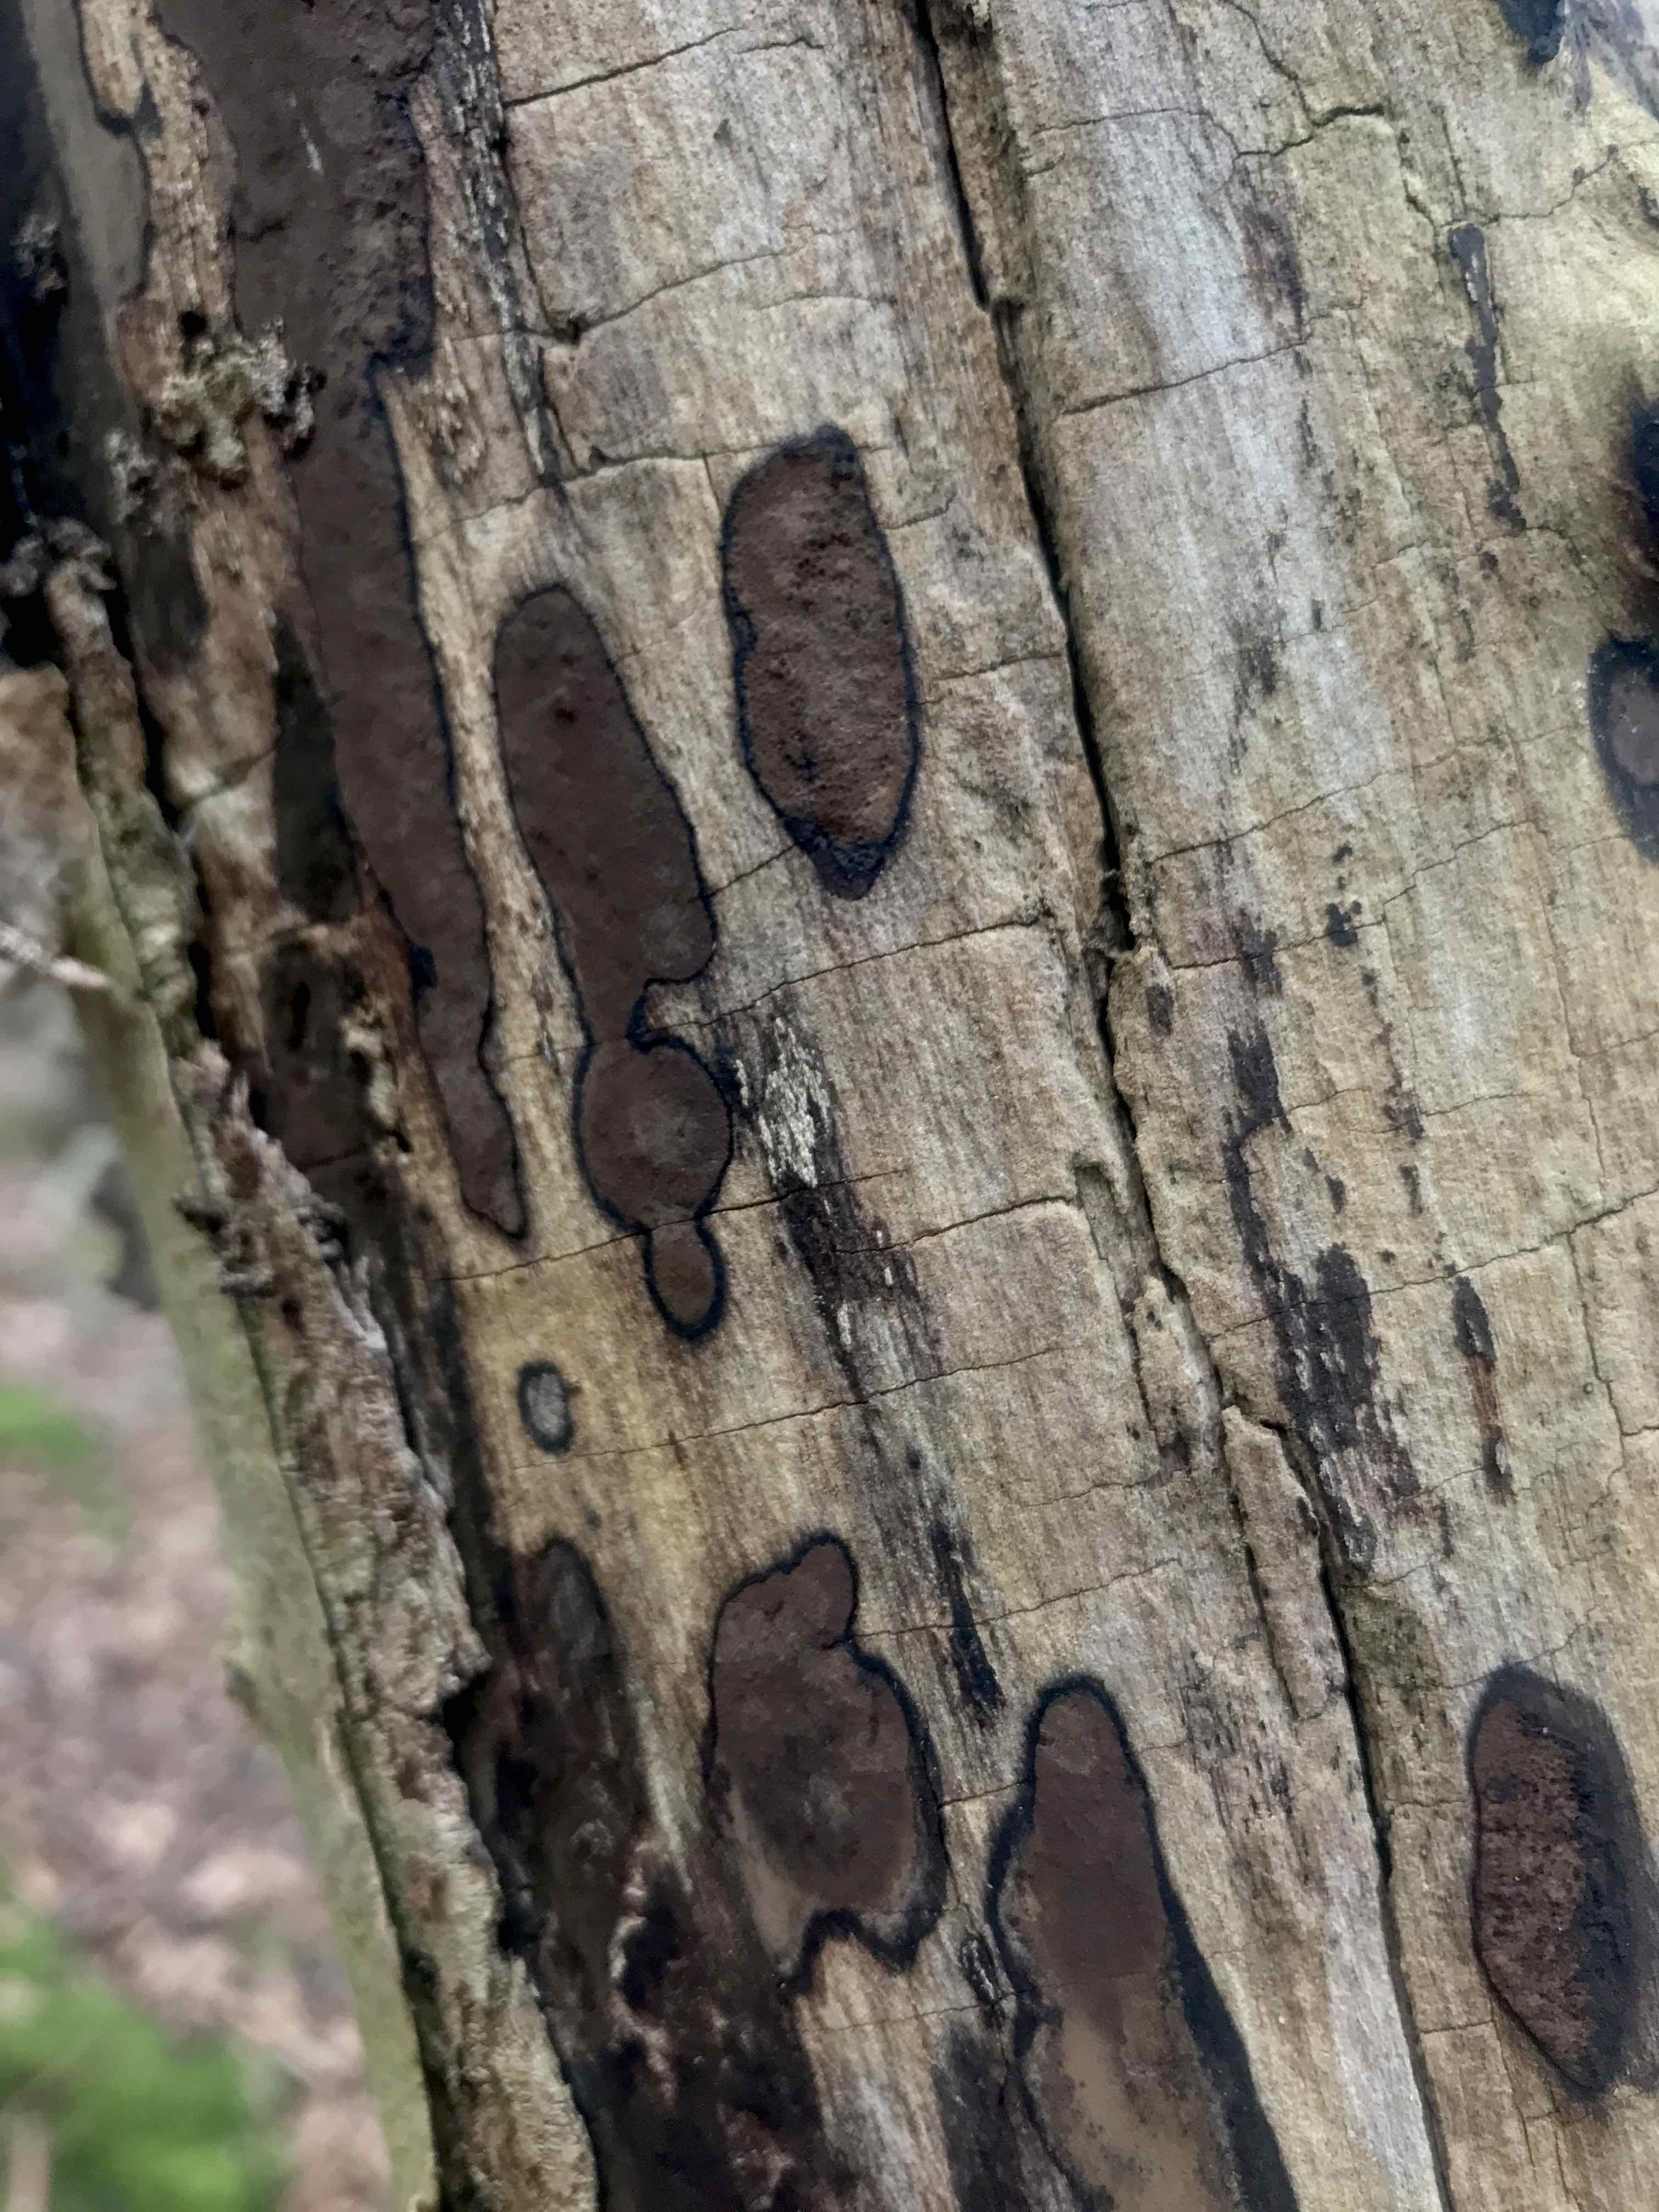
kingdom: Fungi
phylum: Ascomycota
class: Sordariomycetes
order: Xylariales
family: Hypoxylaceae
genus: Hypoxylon
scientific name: Hypoxylon petriniae
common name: nedsænket kulbær
